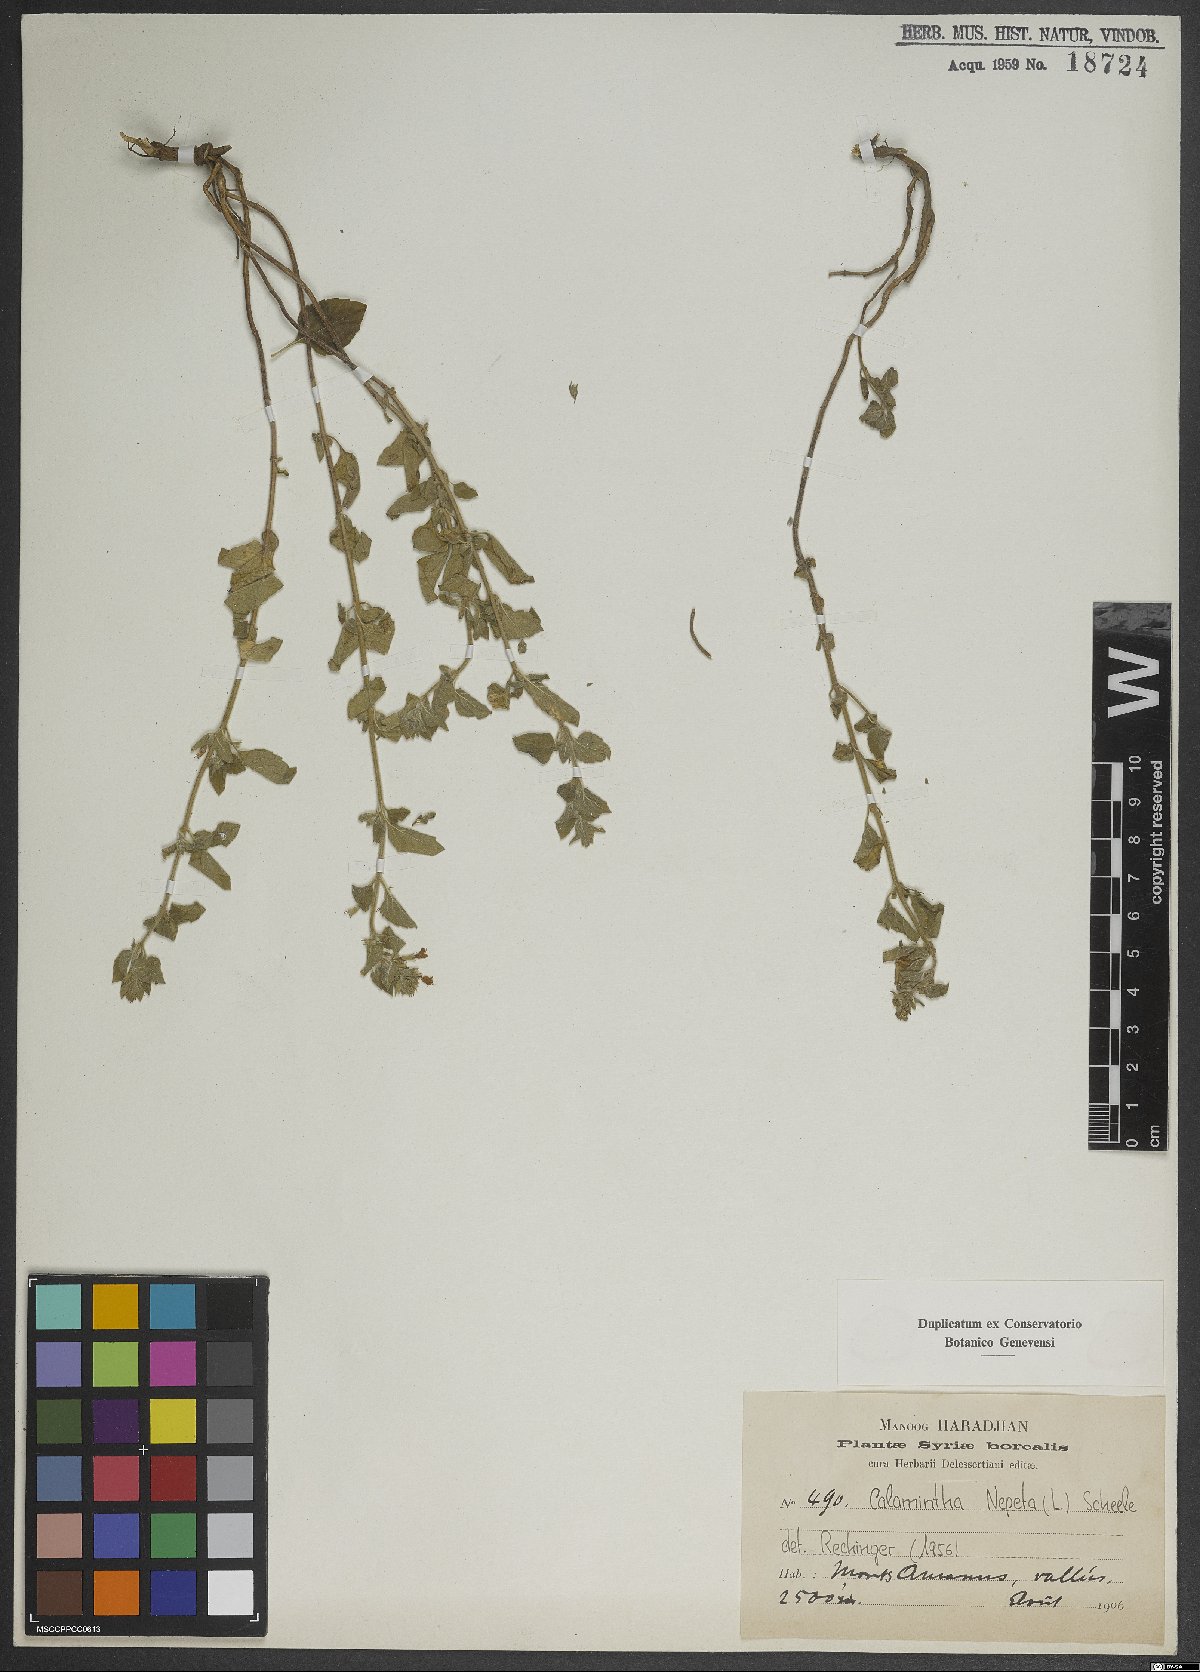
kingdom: Plantae
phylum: Tracheophyta
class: Magnoliopsida
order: Lamiales
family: Lamiaceae
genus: Clinopodium
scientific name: Clinopodium nepeta
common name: Lesser calamint
